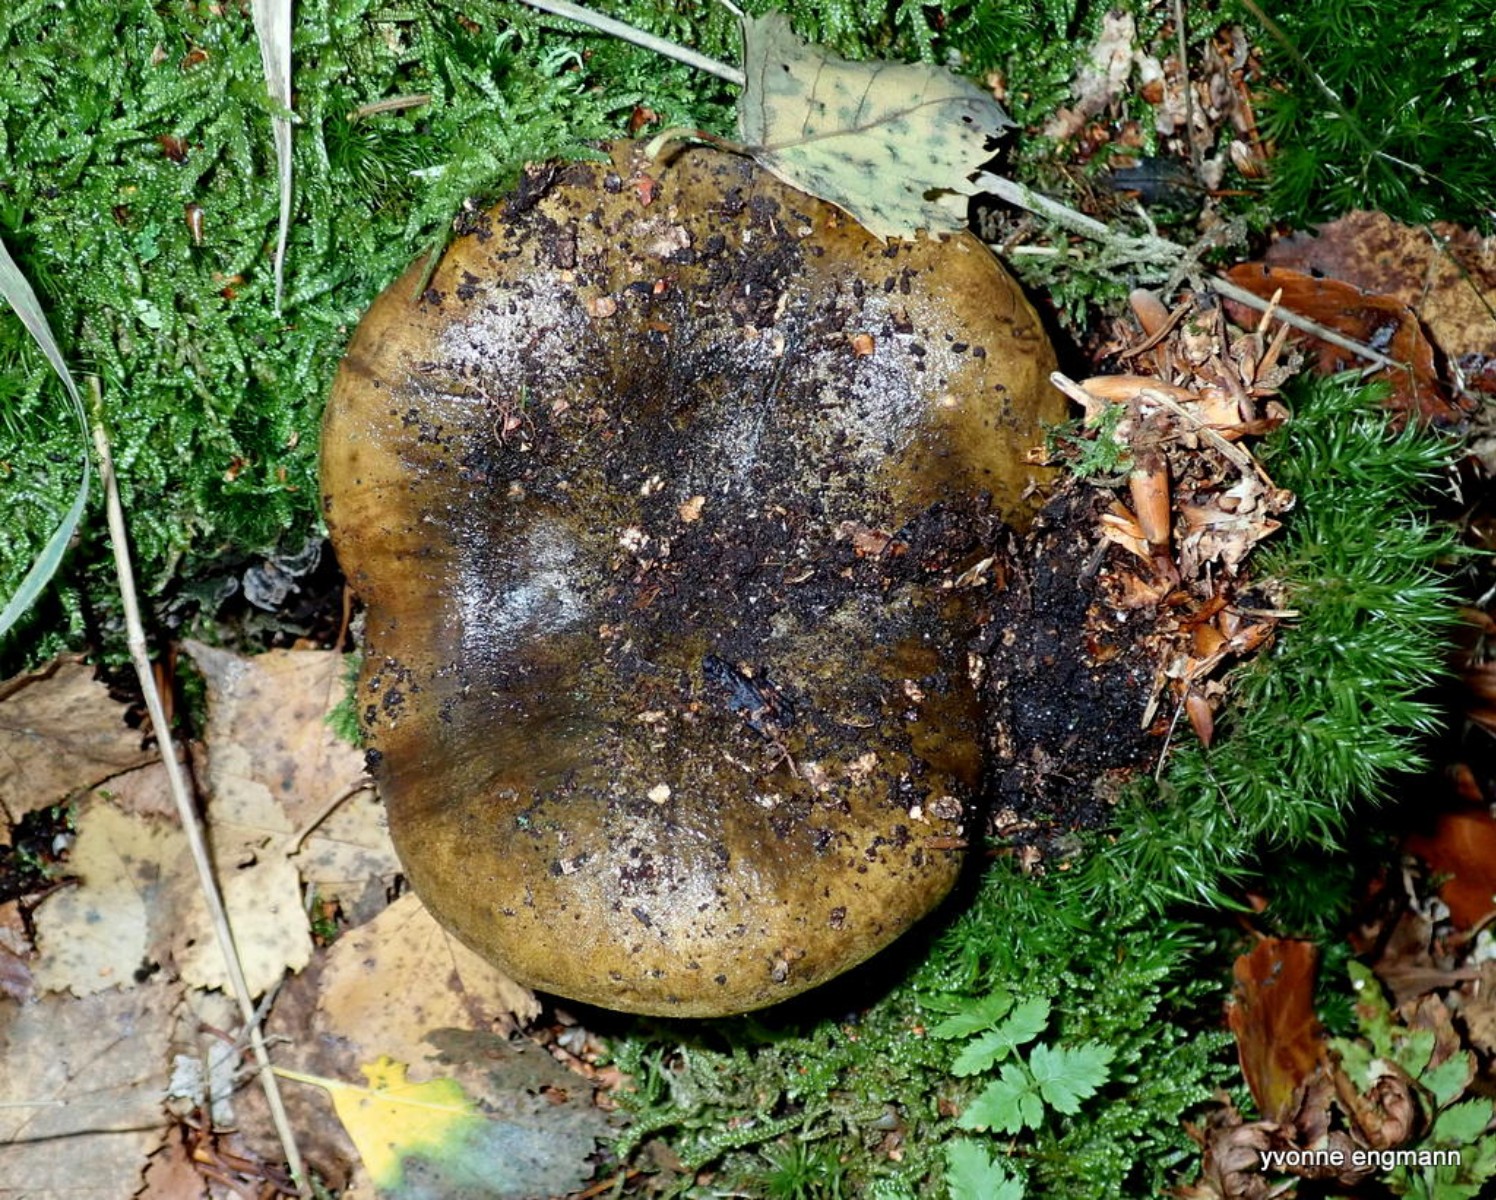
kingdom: Fungi
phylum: Basidiomycota
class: Agaricomycetes
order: Russulales
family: Russulaceae
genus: Lactarius
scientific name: Lactarius necator
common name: manddraber-mælkehat
